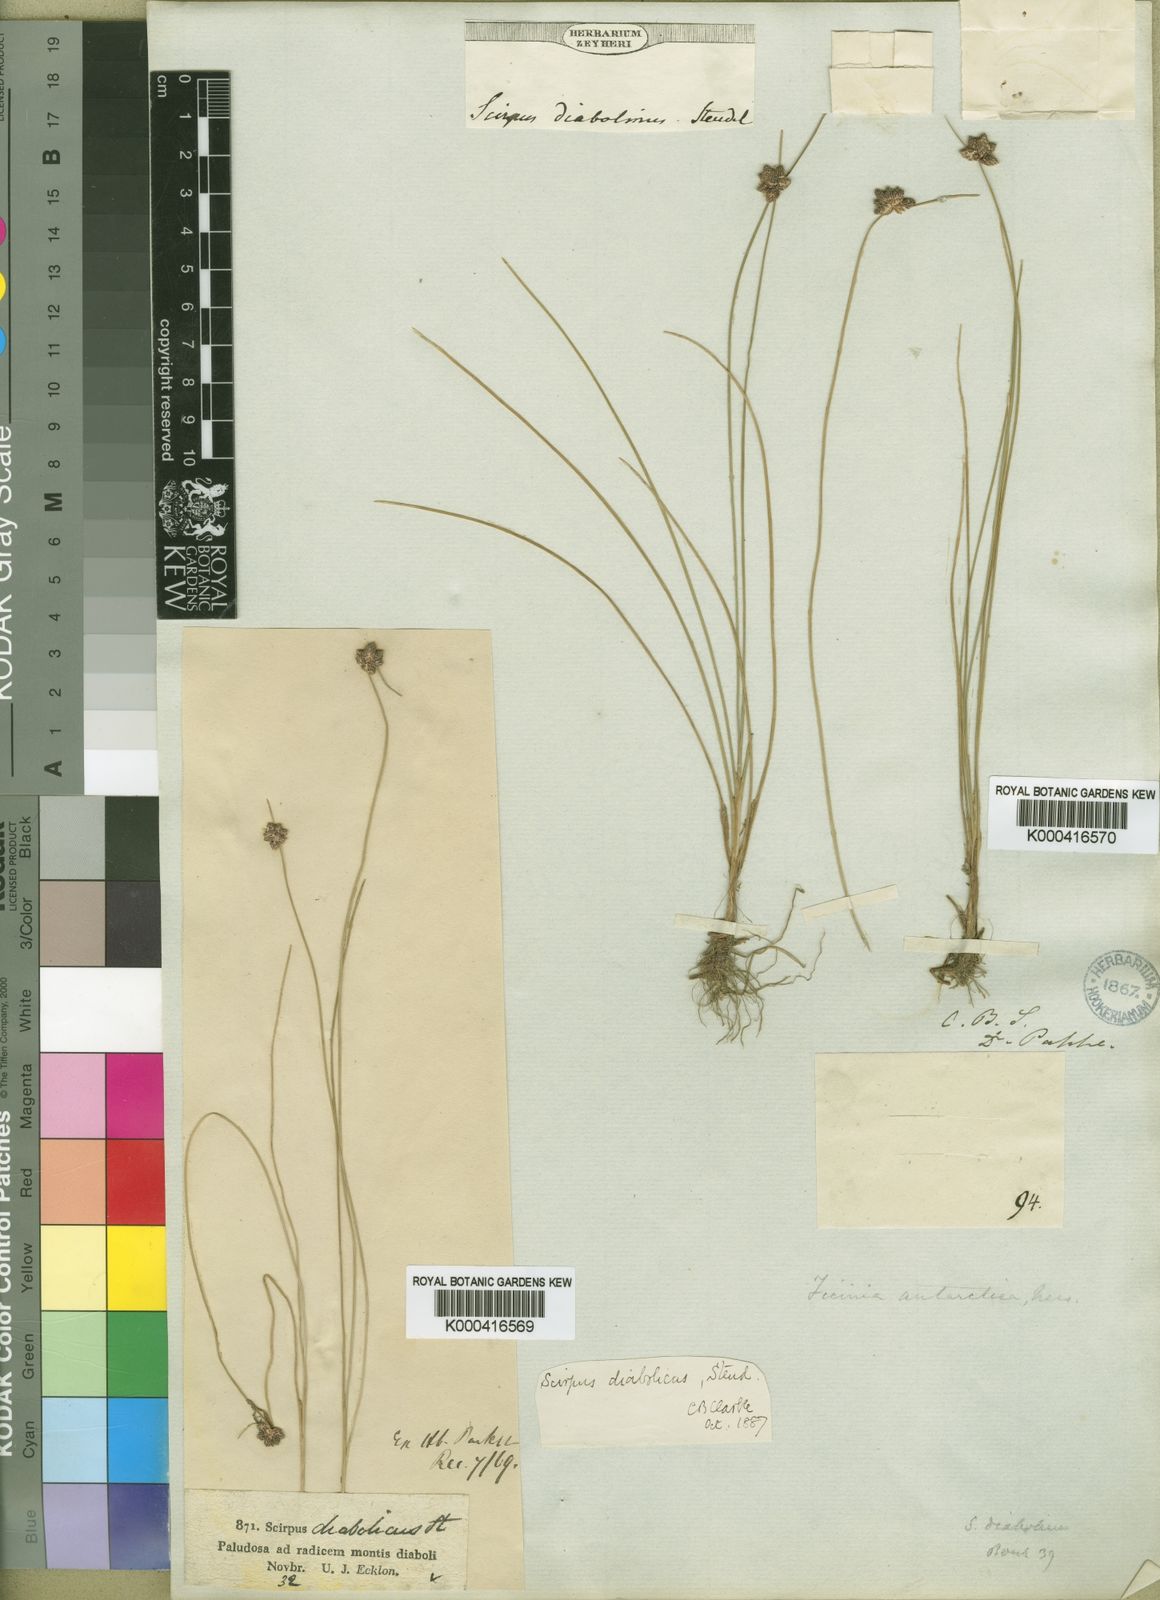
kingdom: Plantae
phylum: Tracheophyta
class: Liliopsida
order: Poales
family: Cyperaceae
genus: Isolepis
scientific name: Isolepis diabolica
